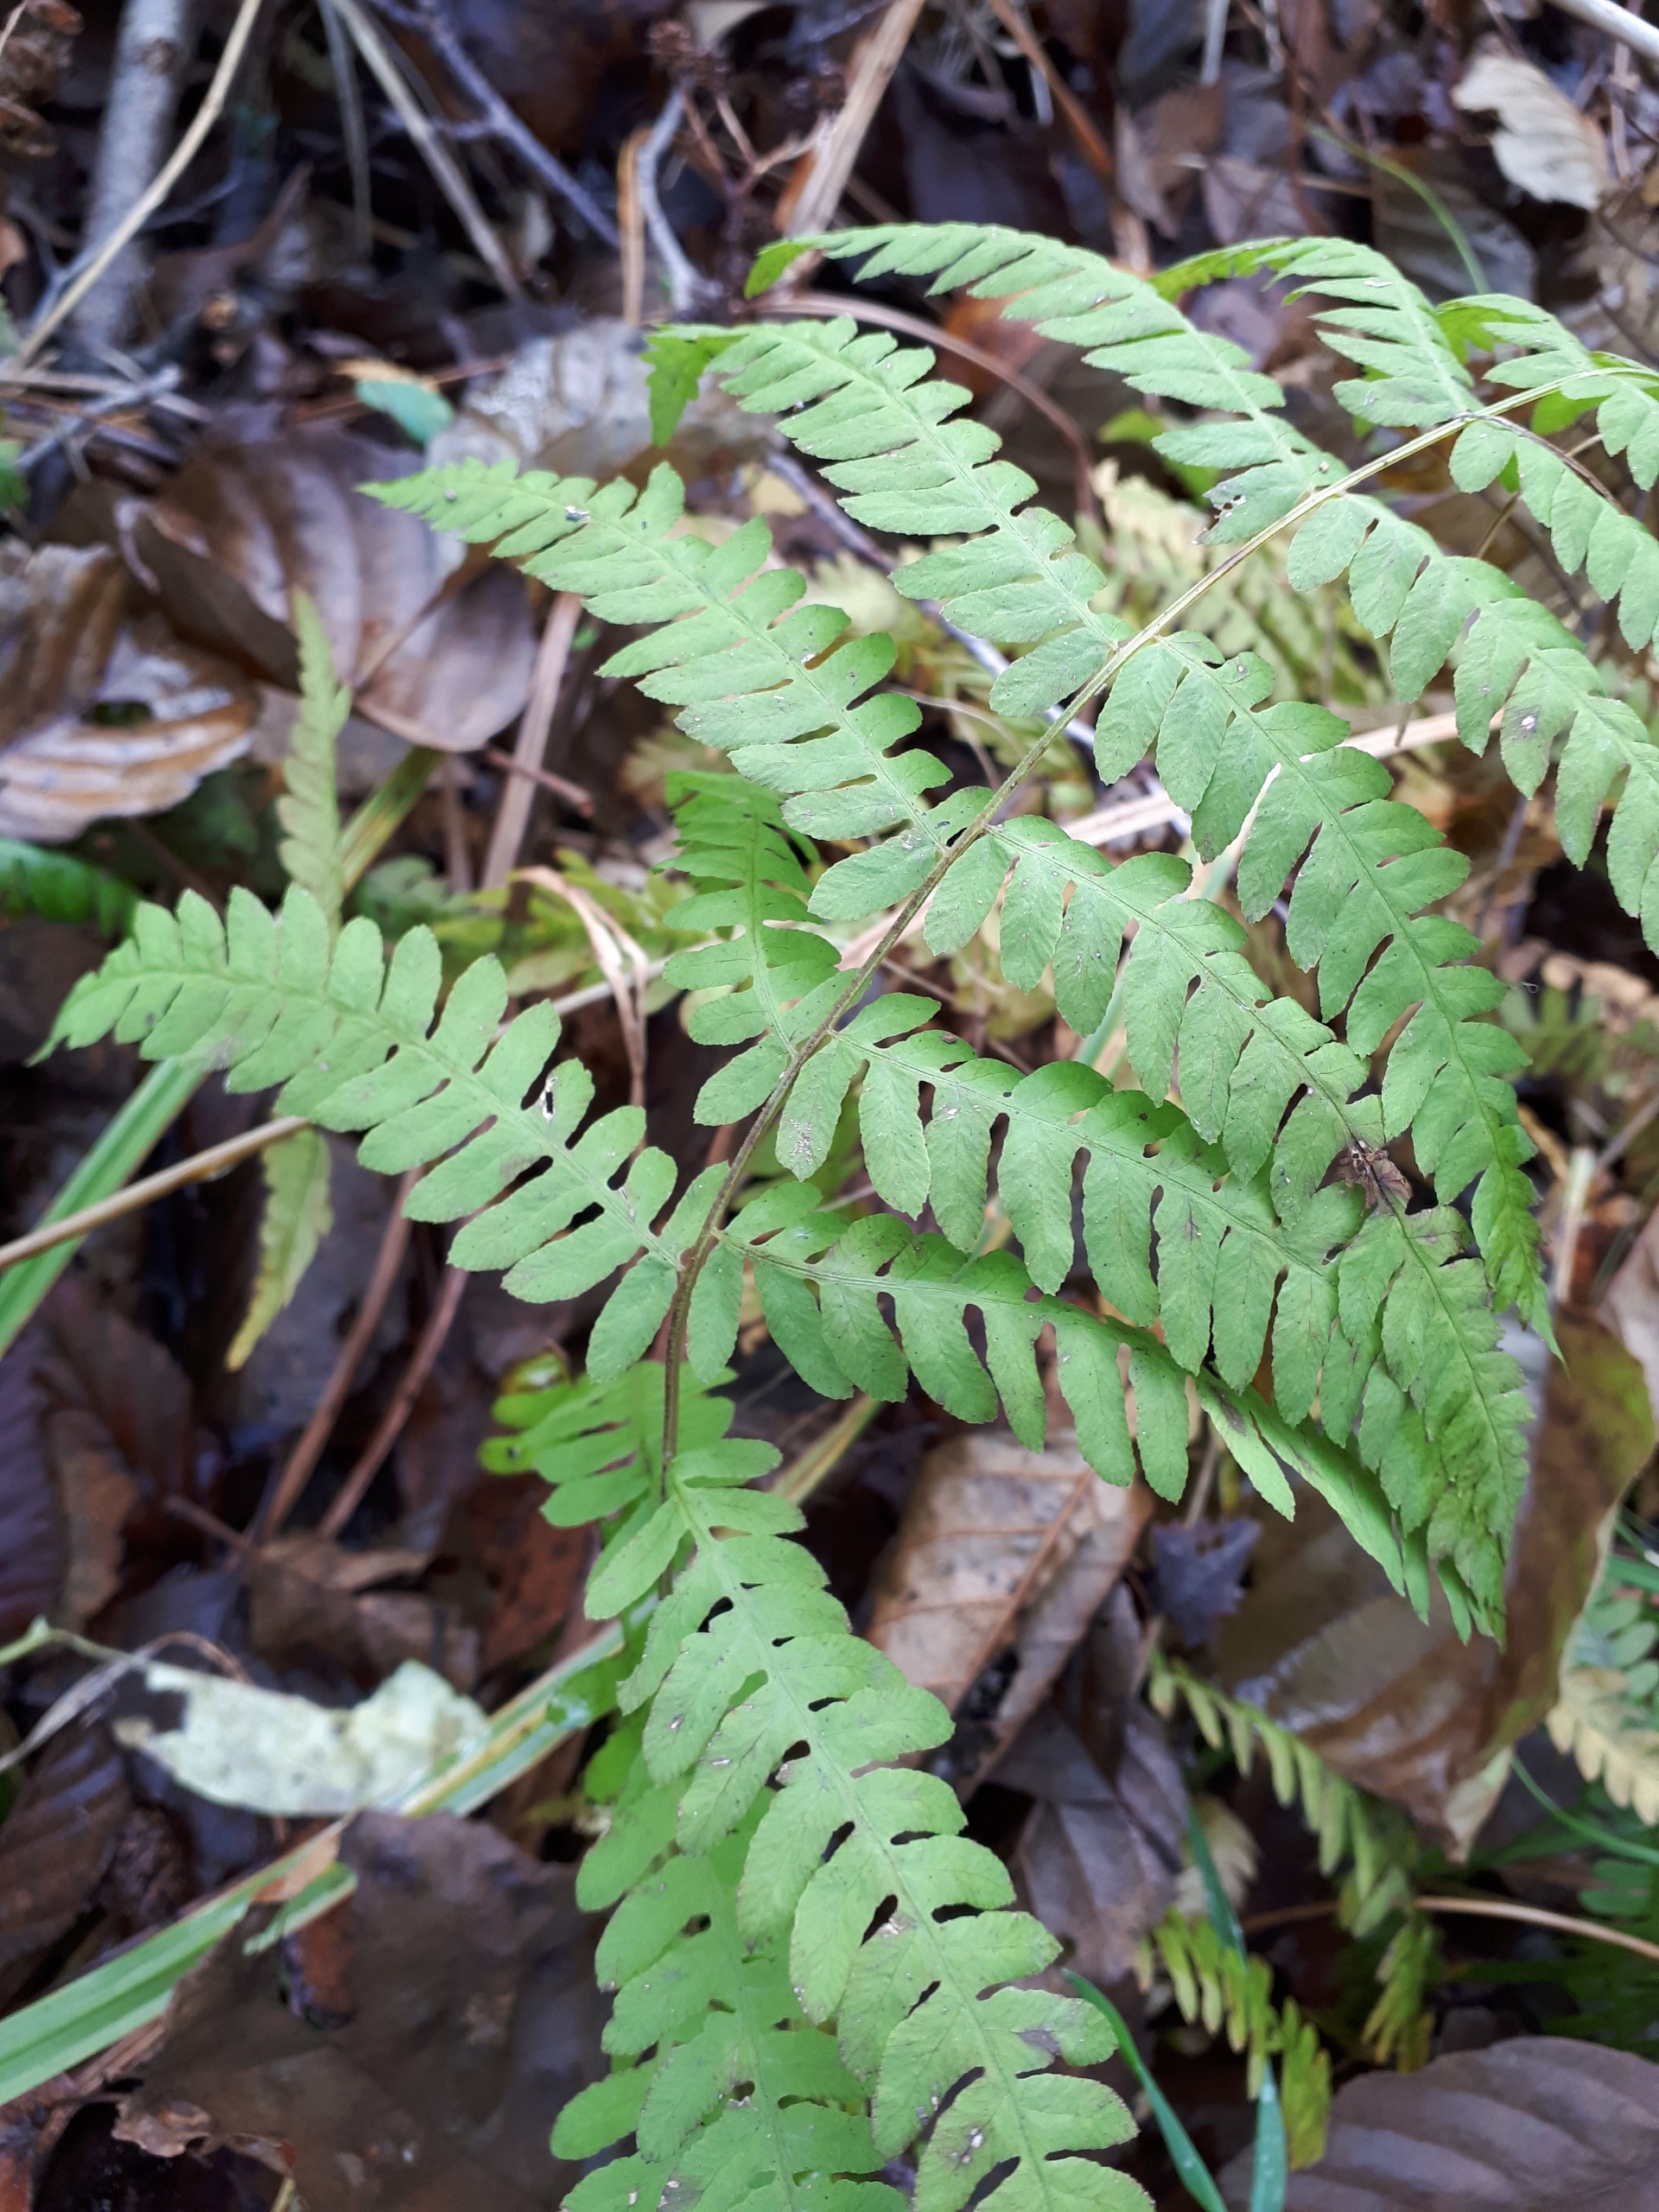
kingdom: Plantae
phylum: Tracheophyta
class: Polypodiopsida
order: Polypodiales
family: Thelypteridaceae
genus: Thelypteris
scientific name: Thelypteris palustris
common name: Kærmangeløv
